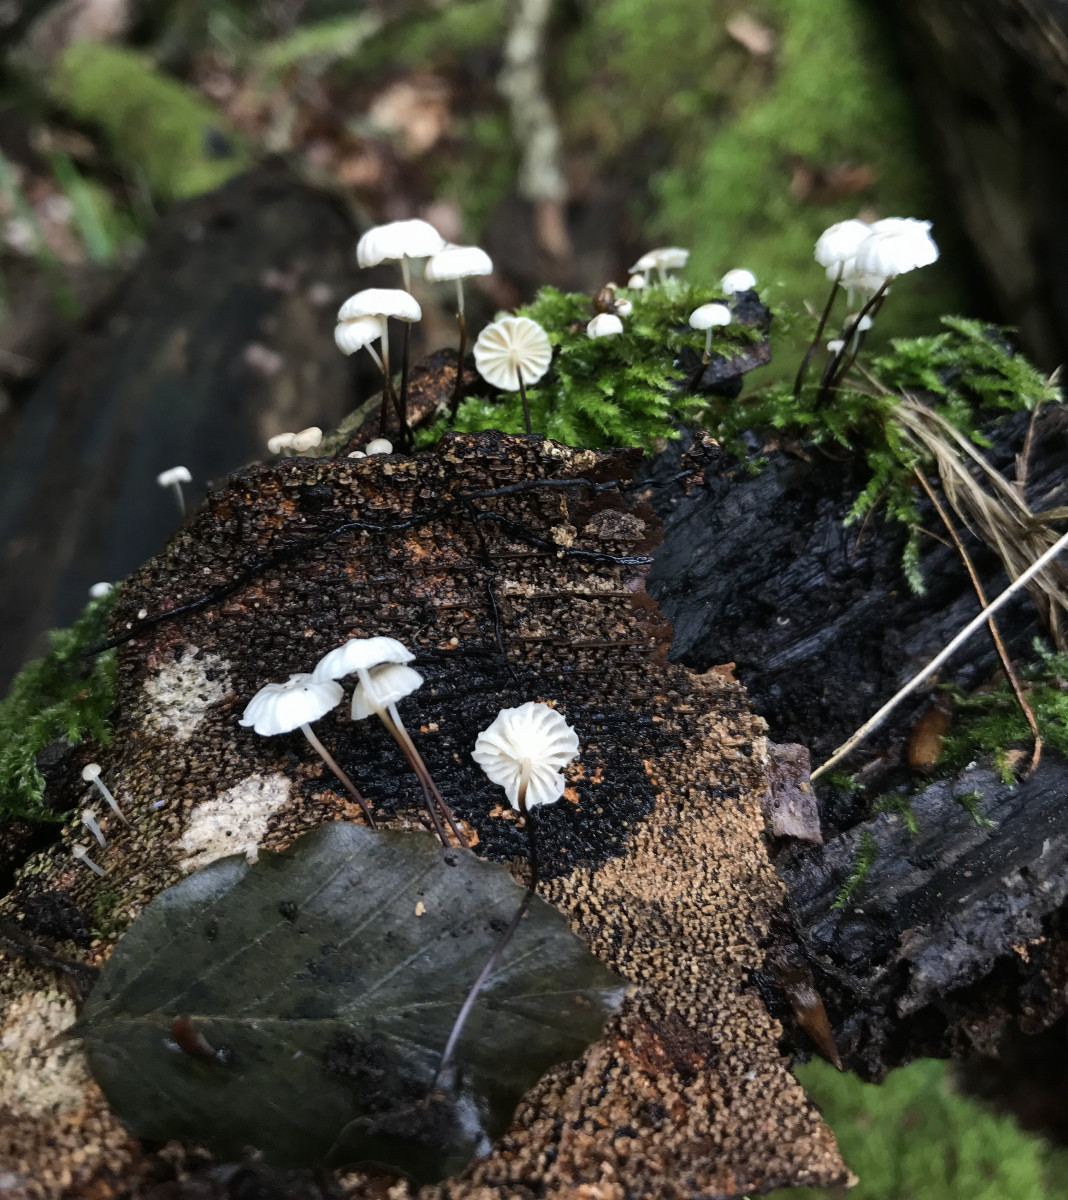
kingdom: Fungi
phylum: Basidiomycota
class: Agaricomycetes
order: Agaricales
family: Marasmiaceae
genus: Marasmius
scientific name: Marasmius rotula
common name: hjul-bruskhat
